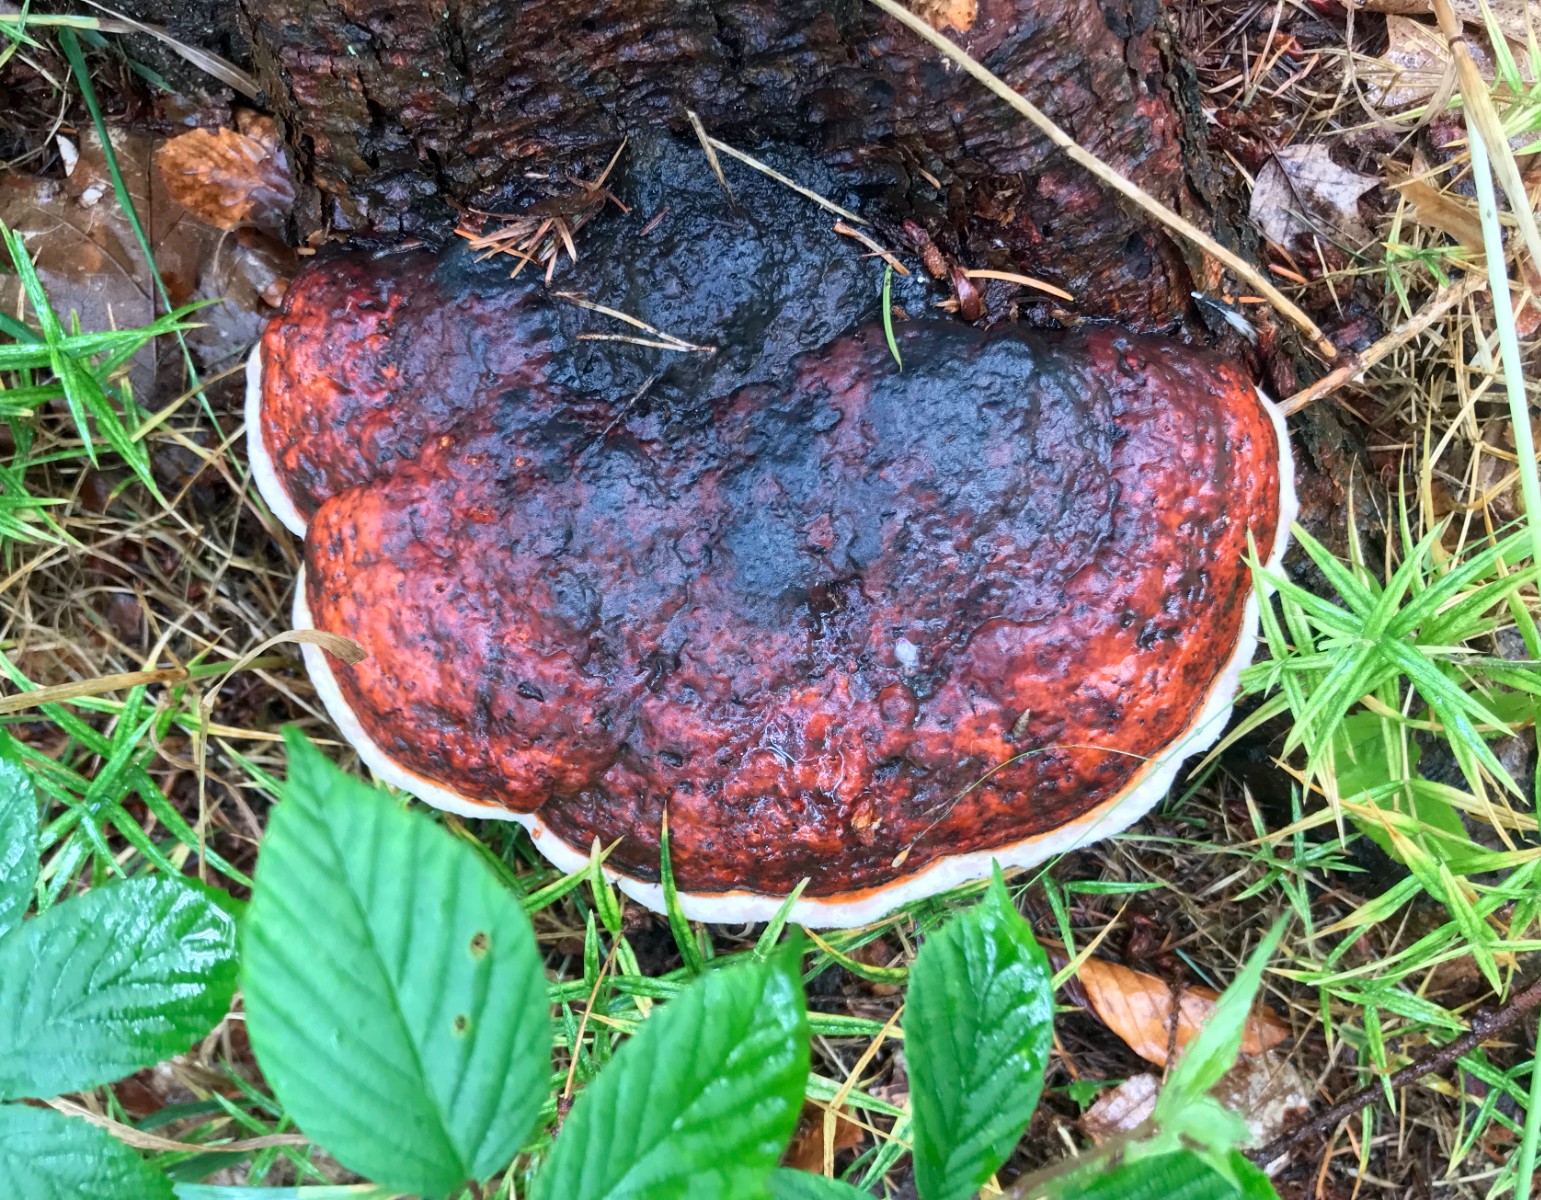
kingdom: Fungi
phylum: Basidiomycota
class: Agaricomycetes
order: Polyporales
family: Fomitopsidaceae
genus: Fomitopsis
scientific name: Fomitopsis pinicola
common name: randbæltet hovporesvamp
